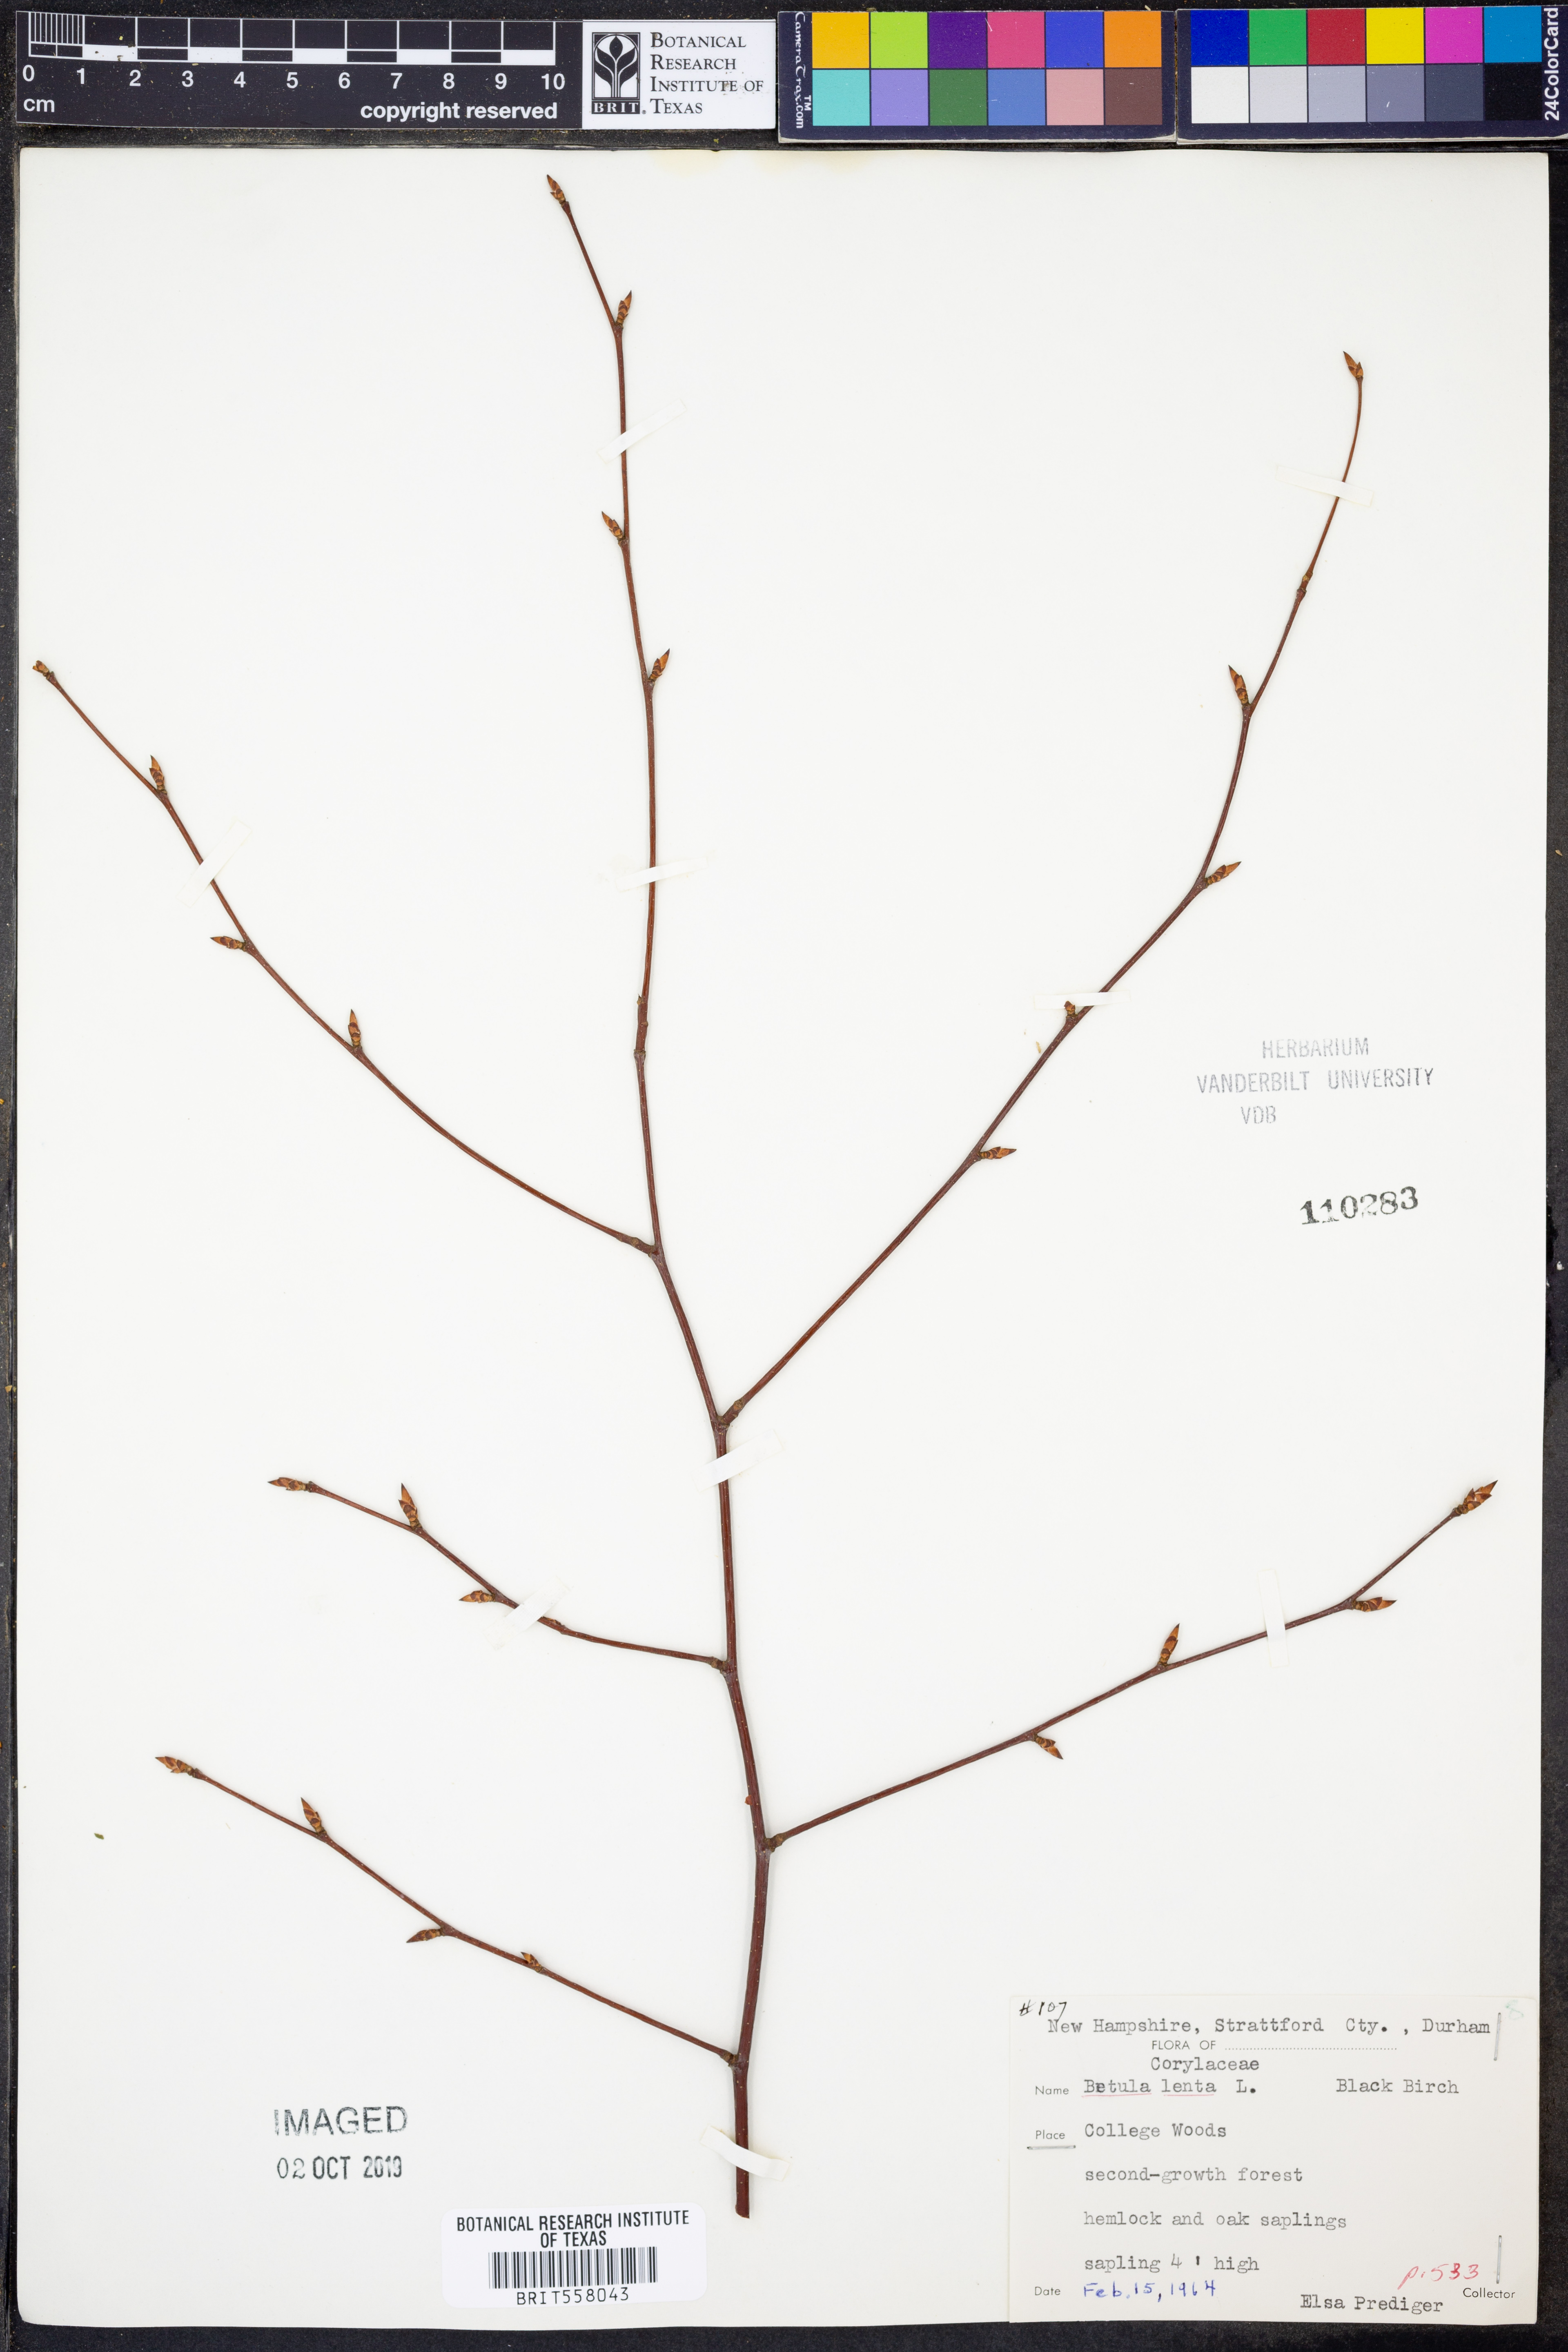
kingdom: Plantae
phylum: Tracheophyta
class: Magnoliopsida
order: Fagales
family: Betulaceae
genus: Betula
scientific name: Betula lenta
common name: Black birch
